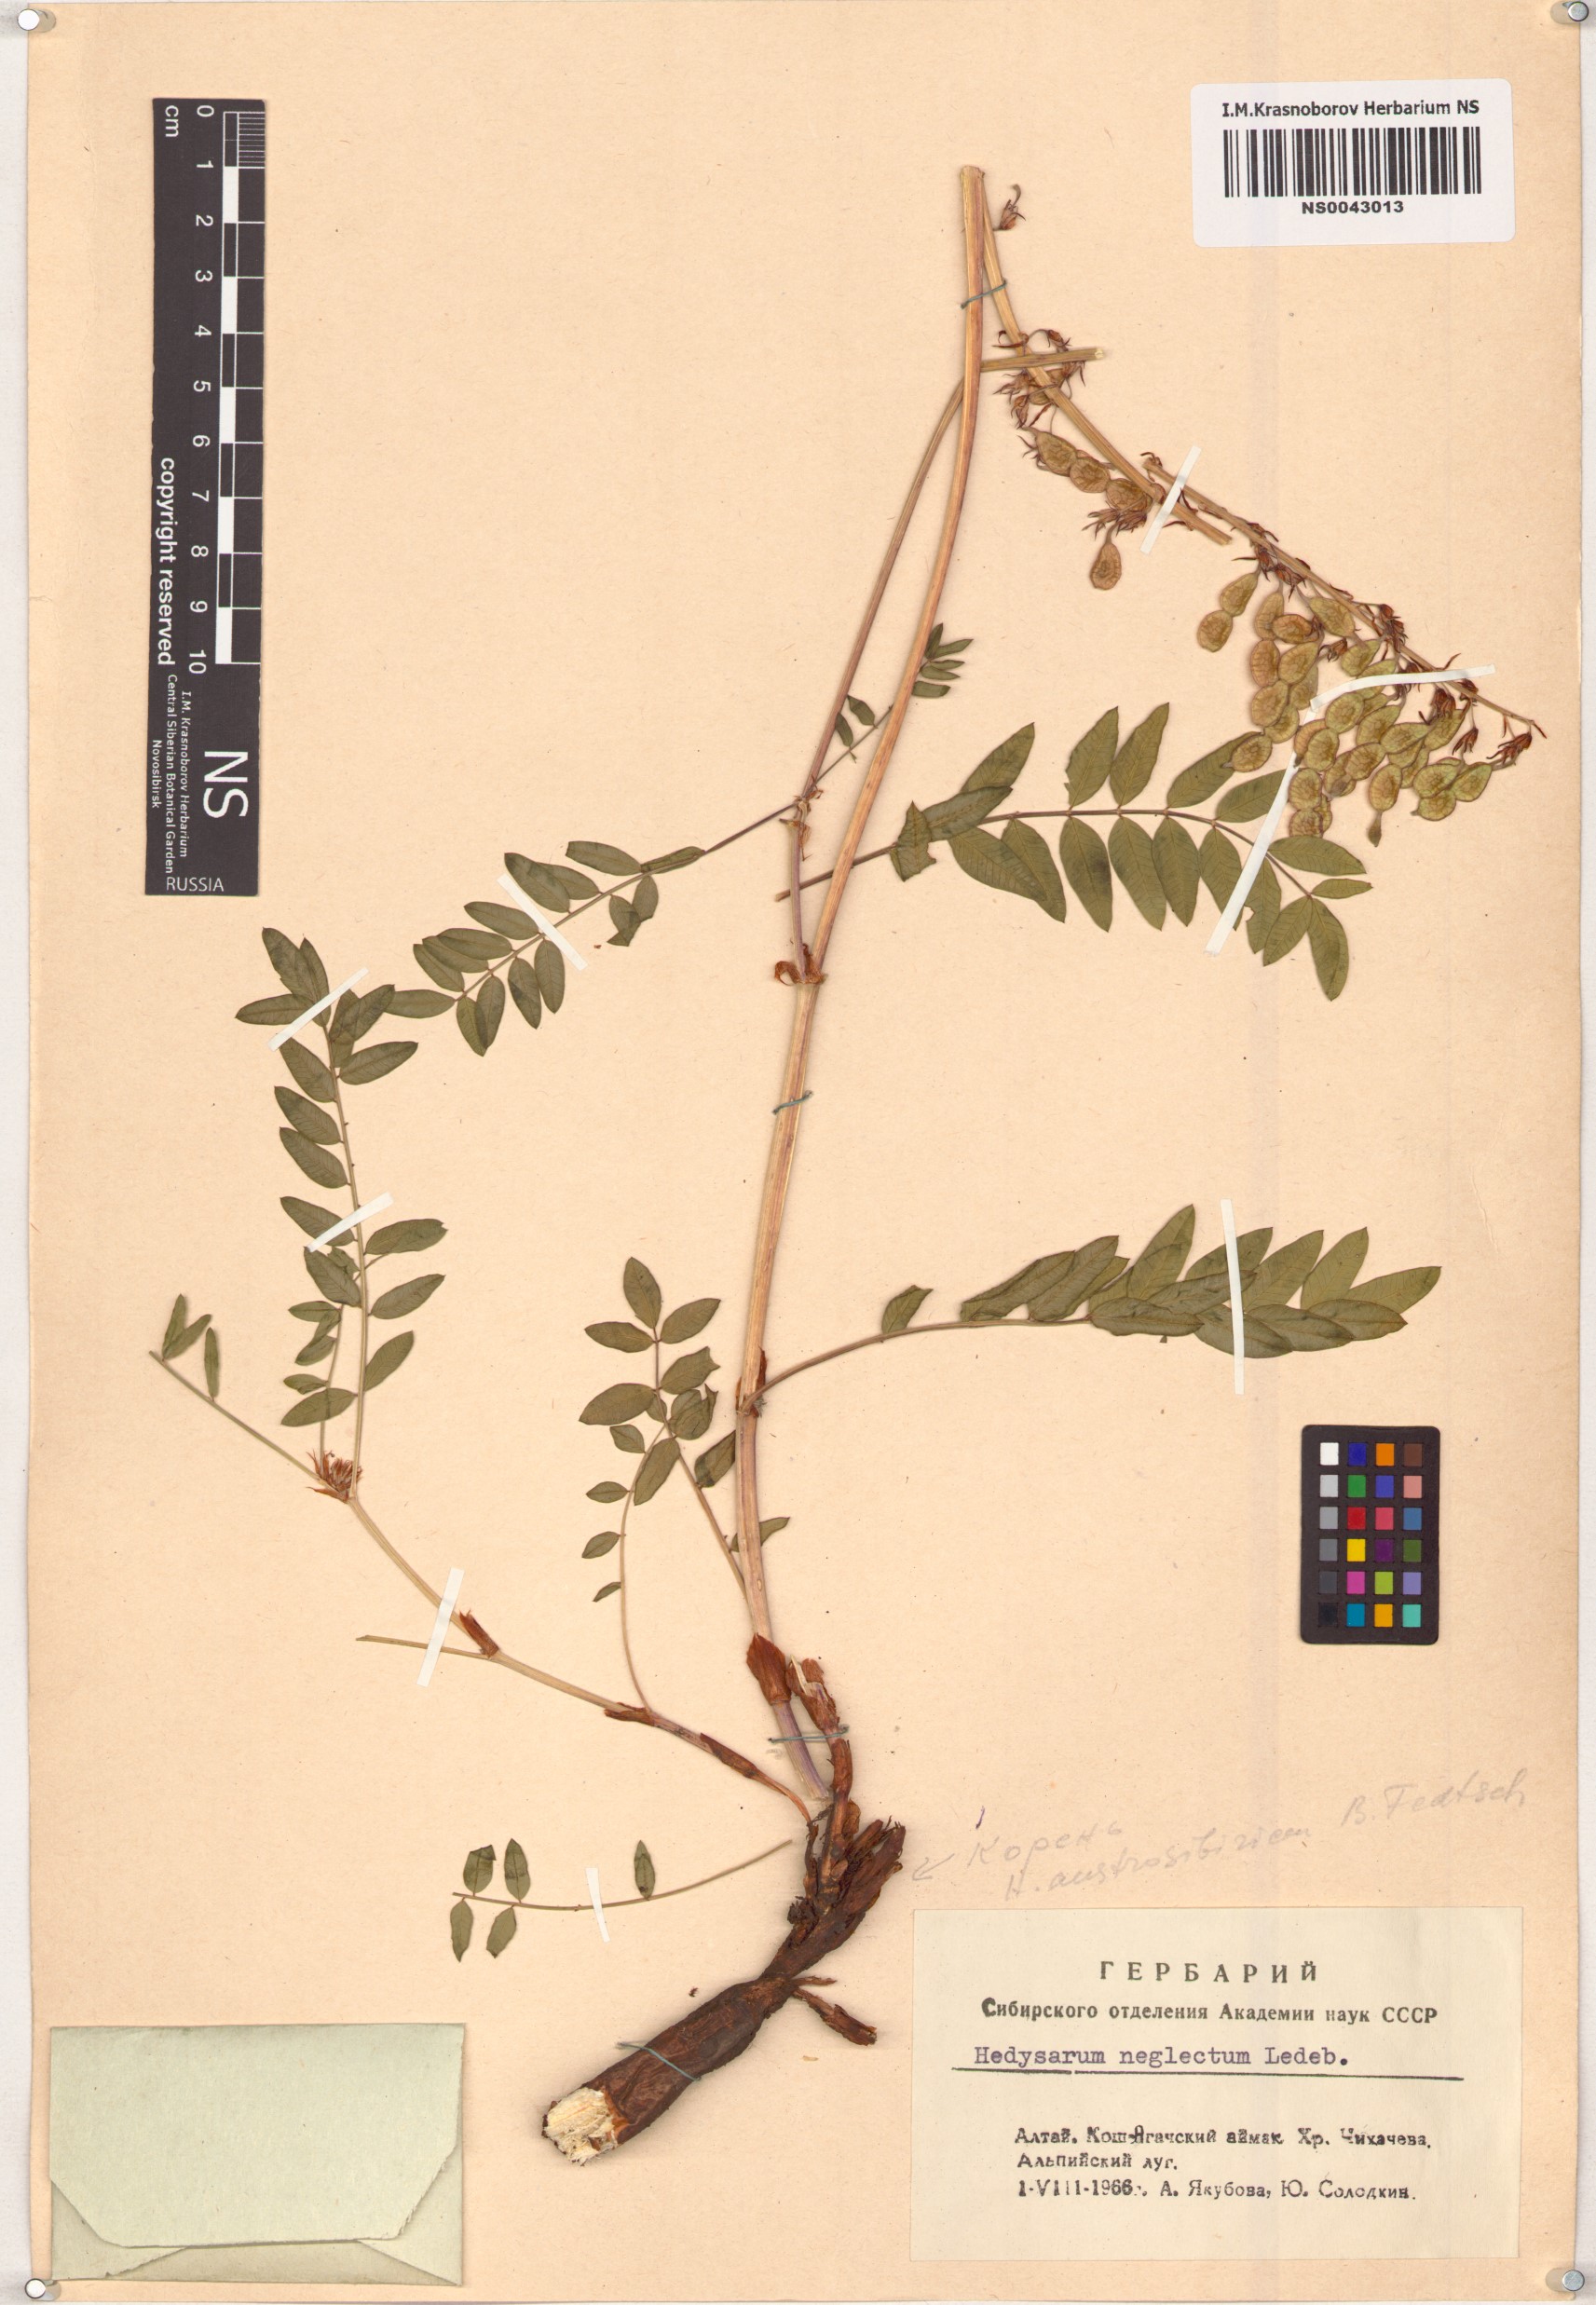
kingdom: Plantae
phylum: Tracheophyta
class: Magnoliopsida
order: Fabales
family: Fabaceae
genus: Hedysarum
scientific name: Hedysarum neglectum
